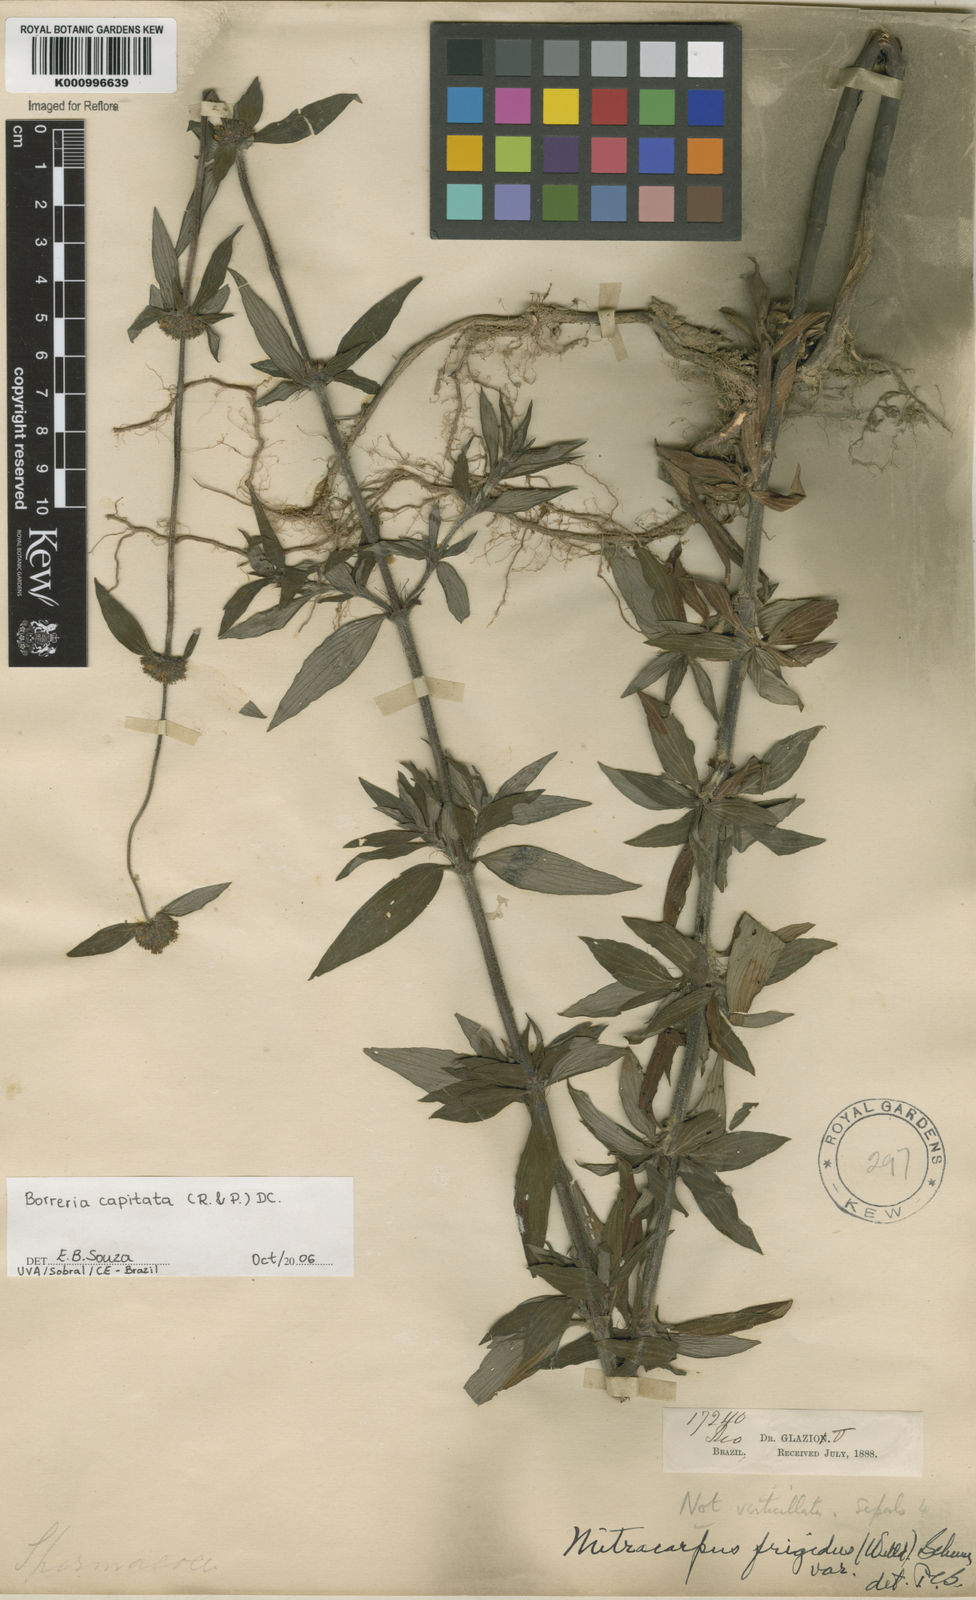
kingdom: Plantae
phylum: Tracheophyta
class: Magnoliopsida
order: Gentianales
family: Rubiaceae
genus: Spermacoce
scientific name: Spermacoce capitata
